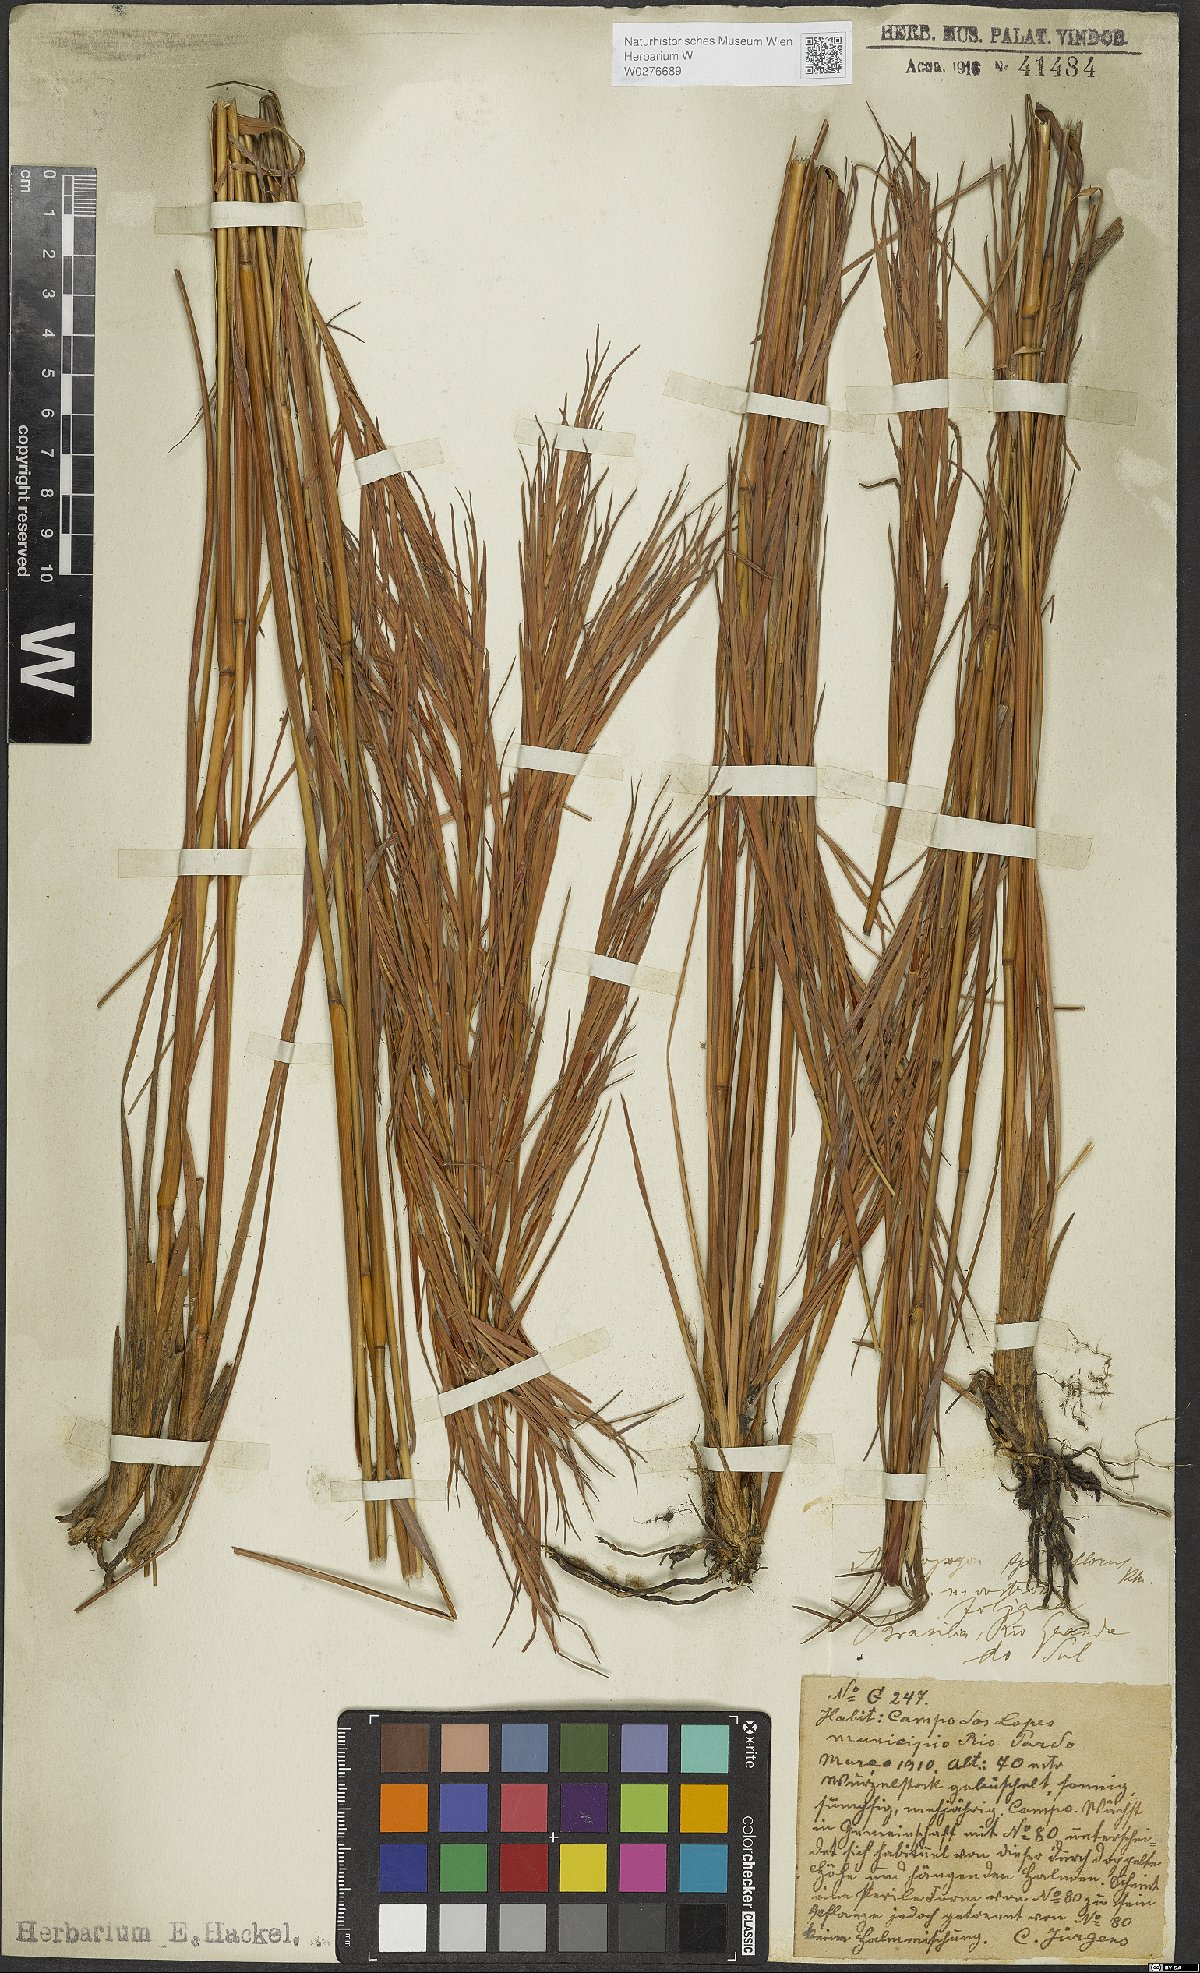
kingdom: Plantae
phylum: Tracheophyta
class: Liliopsida
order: Poales
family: Poaceae
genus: Andropogon
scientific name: Andropogon virgatus
